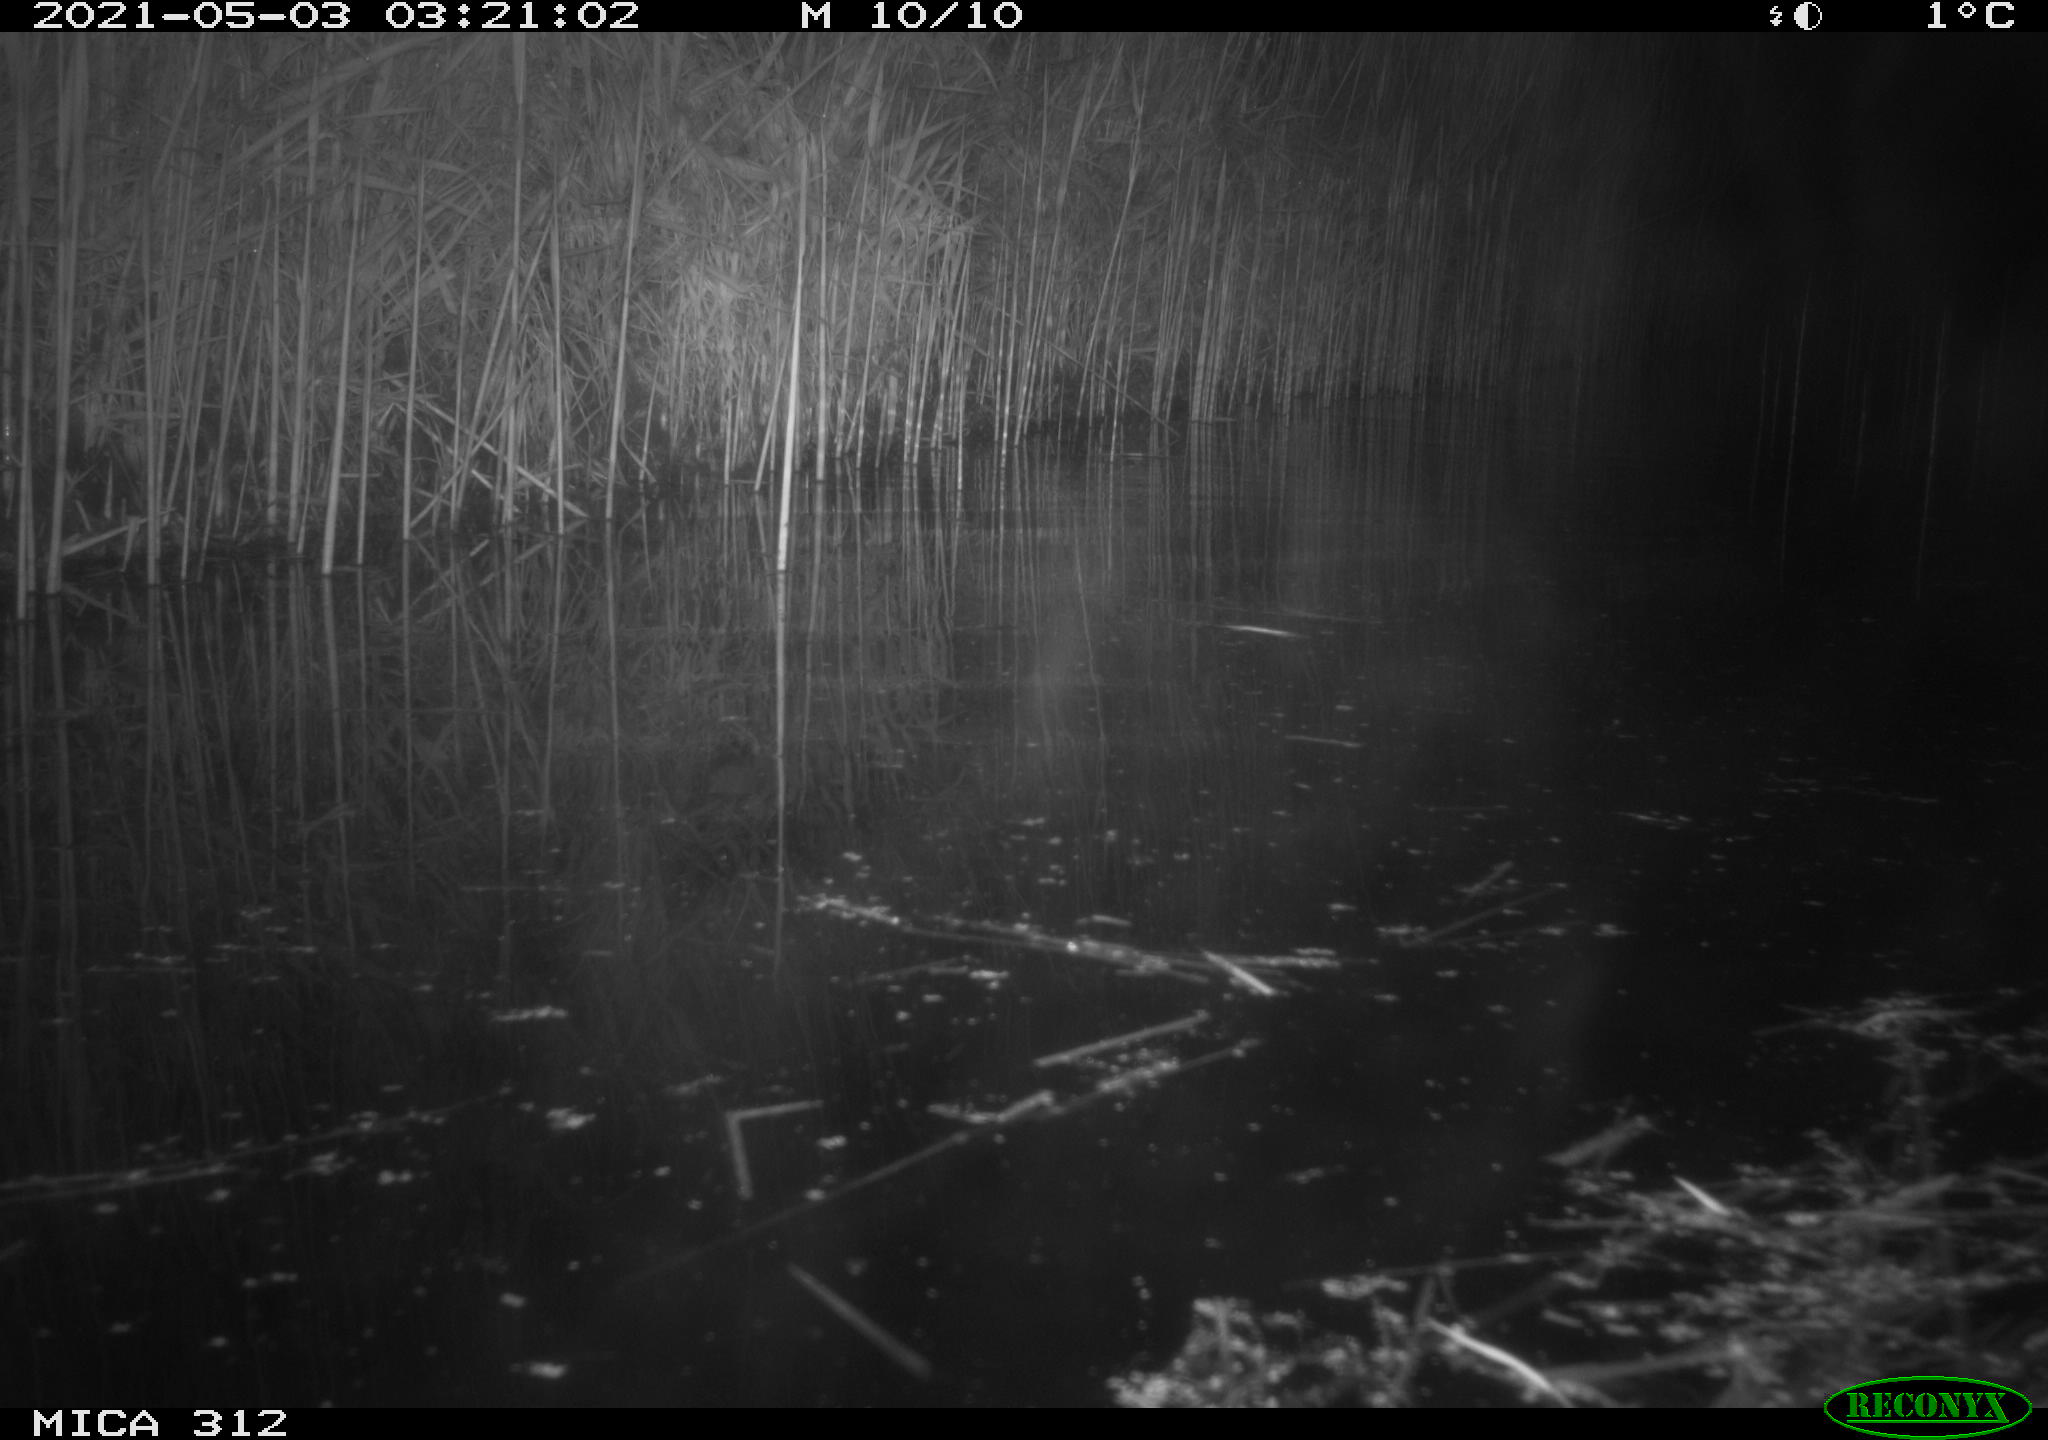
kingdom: Animalia
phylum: Chordata
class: Mammalia
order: Rodentia
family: Muridae
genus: Rattus
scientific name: Rattus norvegicus
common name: Brown rat
